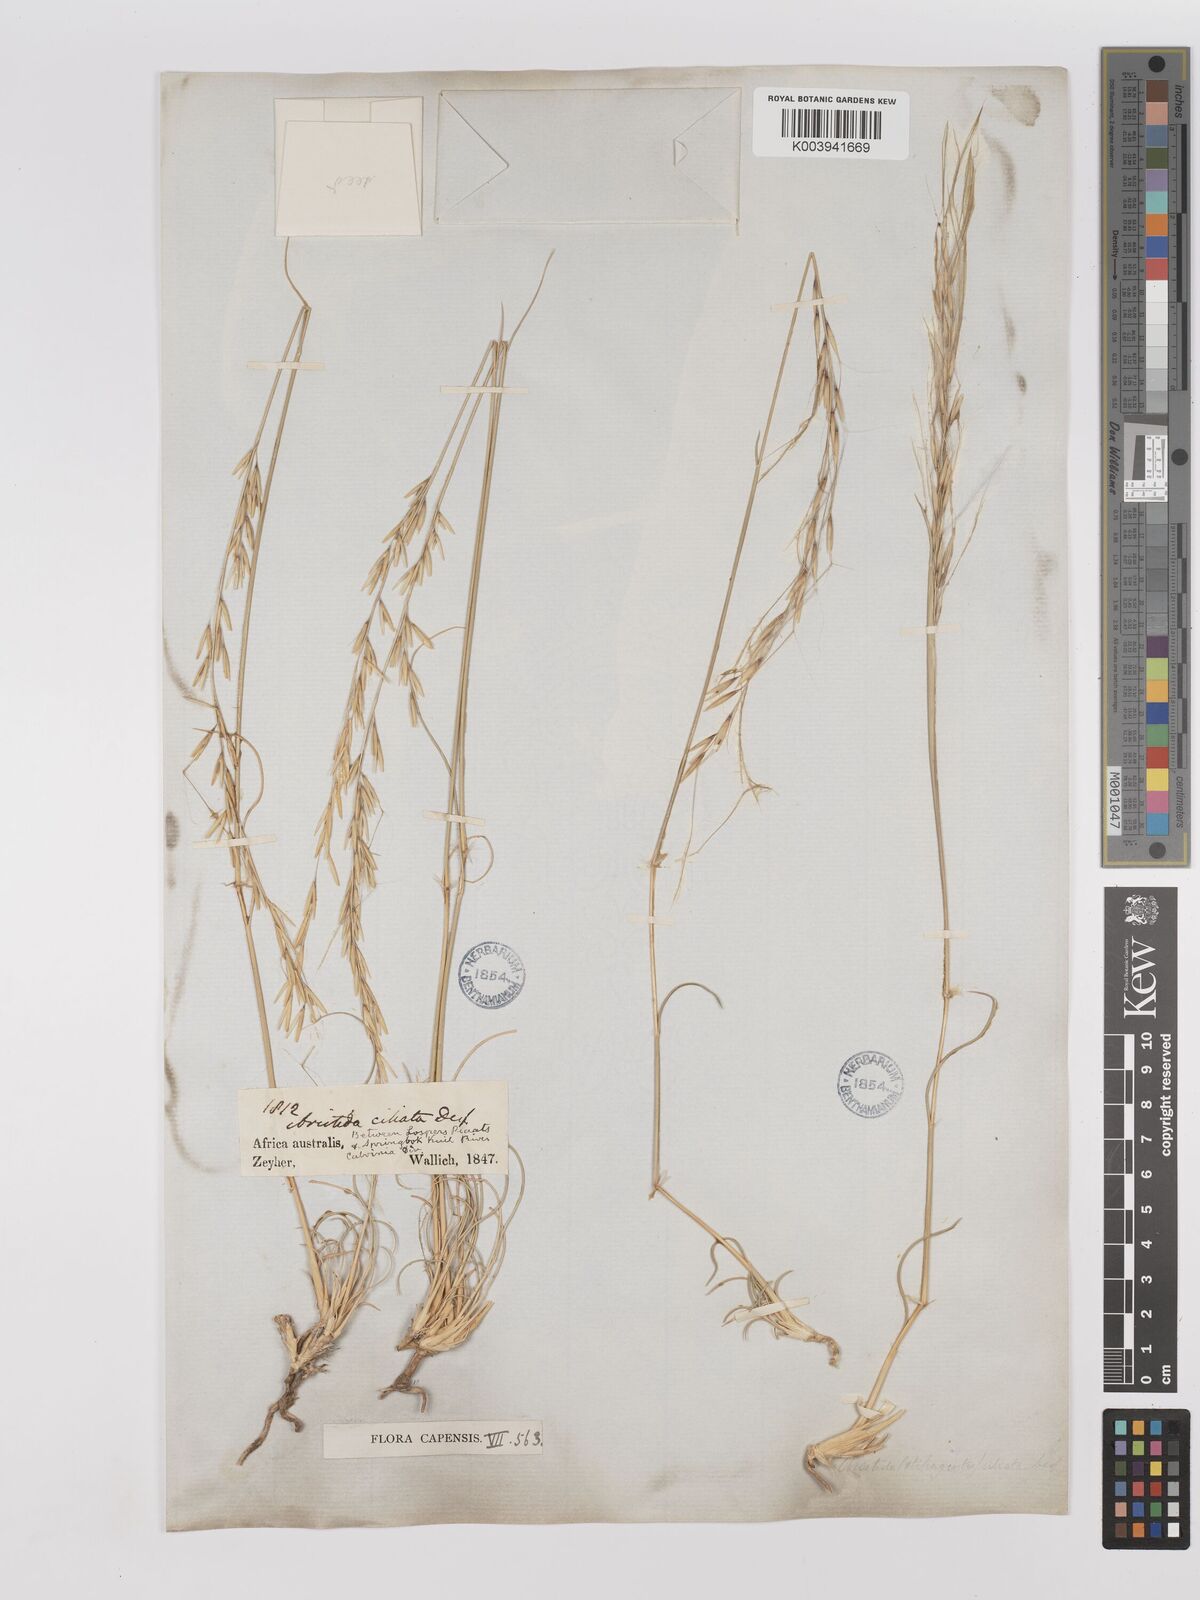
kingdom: Plantae
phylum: Tracheophyta
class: Liliopsida
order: Poales
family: Poaceae
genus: Stipagrostis
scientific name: Stipagrostis ciliata
